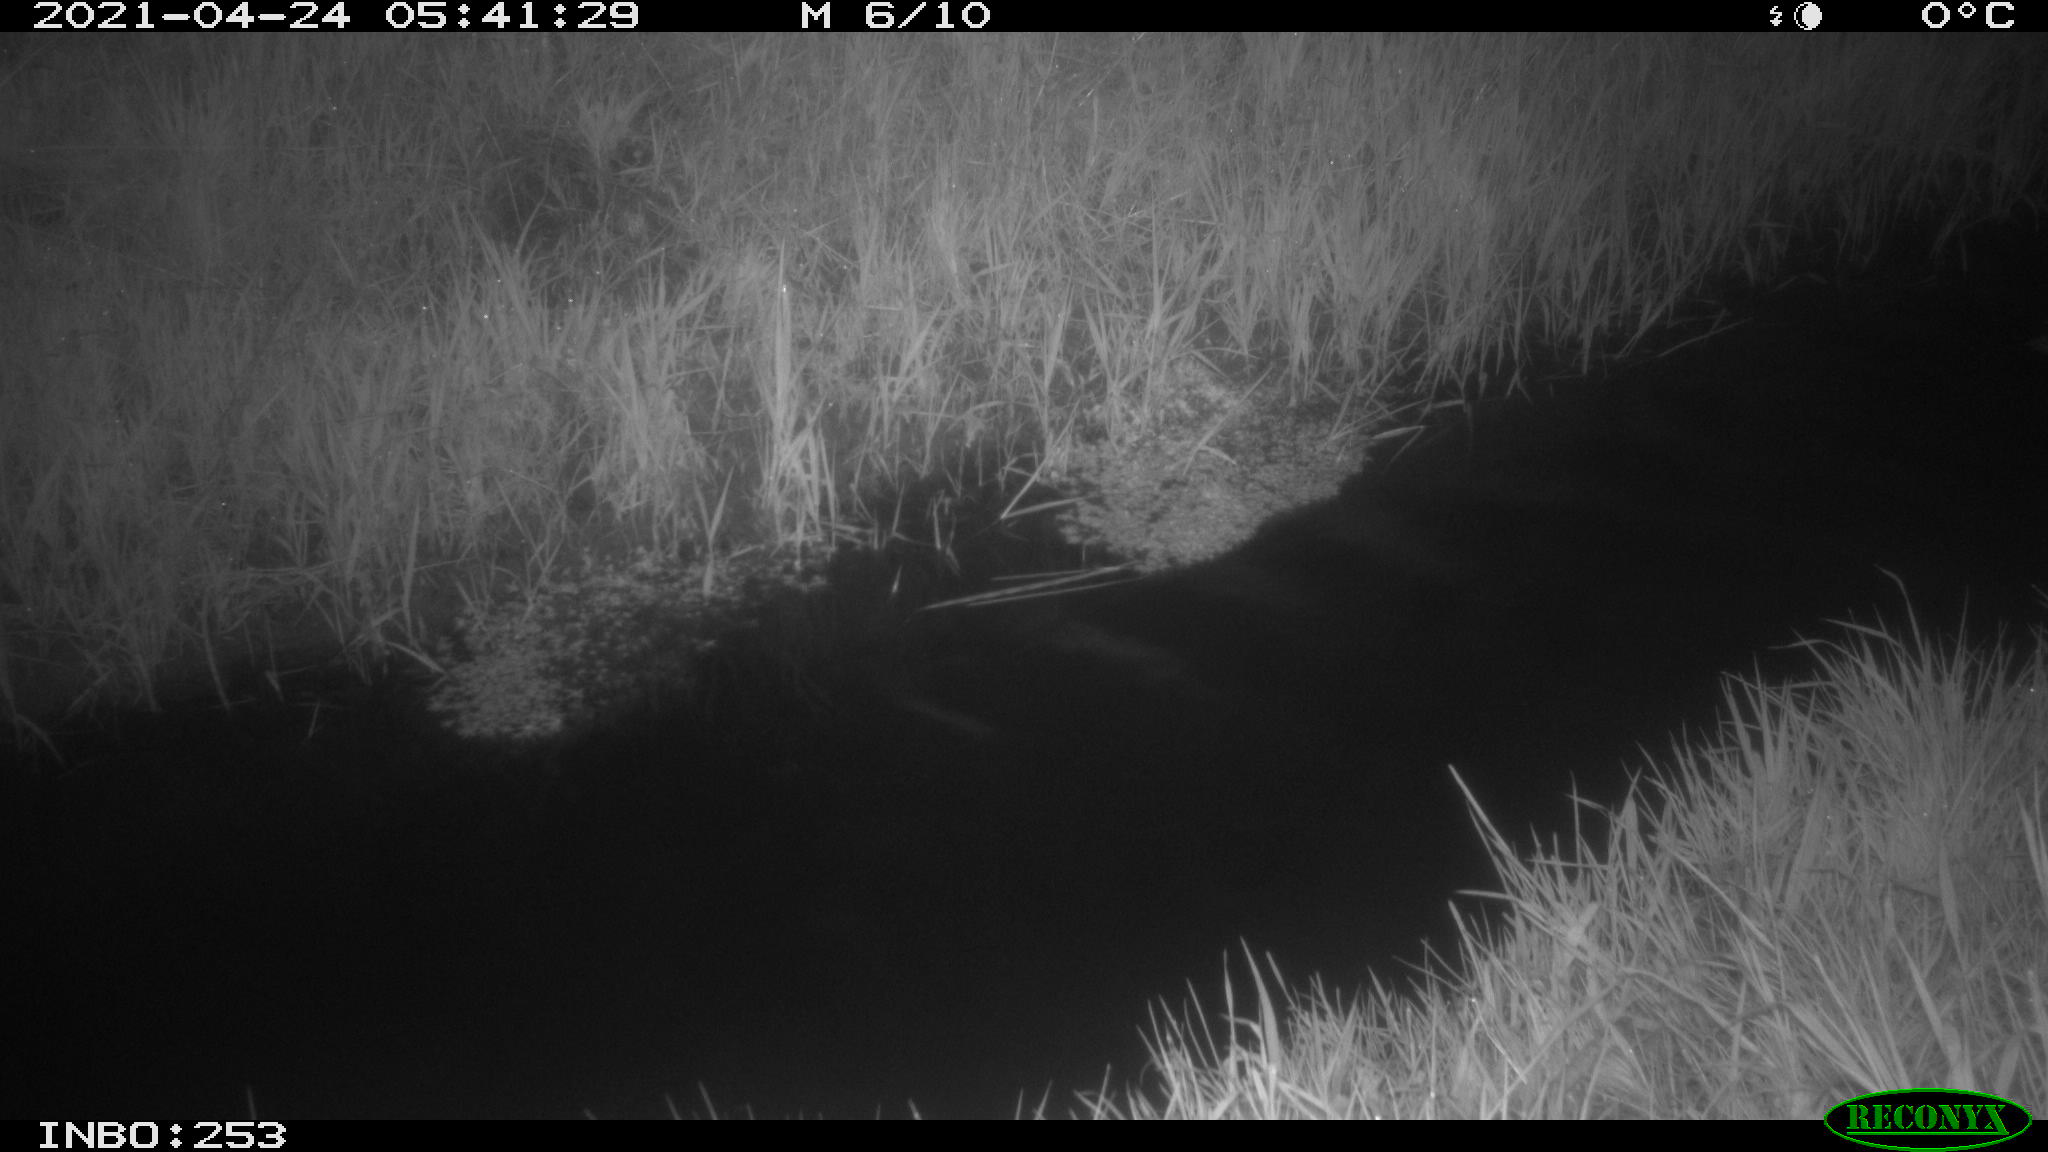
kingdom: Animalia
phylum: Chordata
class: Aves
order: Anseriformes
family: Anatidae
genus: Anas
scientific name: Anas platyrhynchos
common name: Mallard
